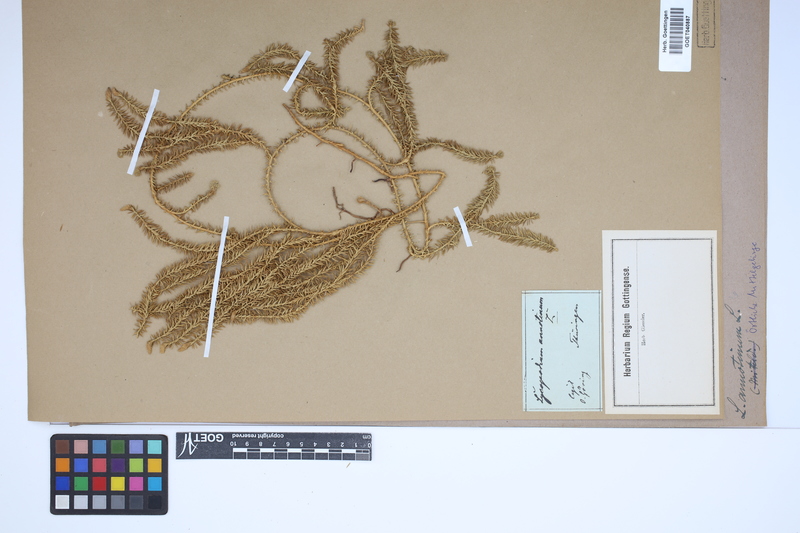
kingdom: Plantae
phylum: Tracheophyta
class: Lycopodiopsida
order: Lycopodiales
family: Lycopodiaceae
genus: Spinulum
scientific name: Spinulum annotinum
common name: Interrupted club-moss
